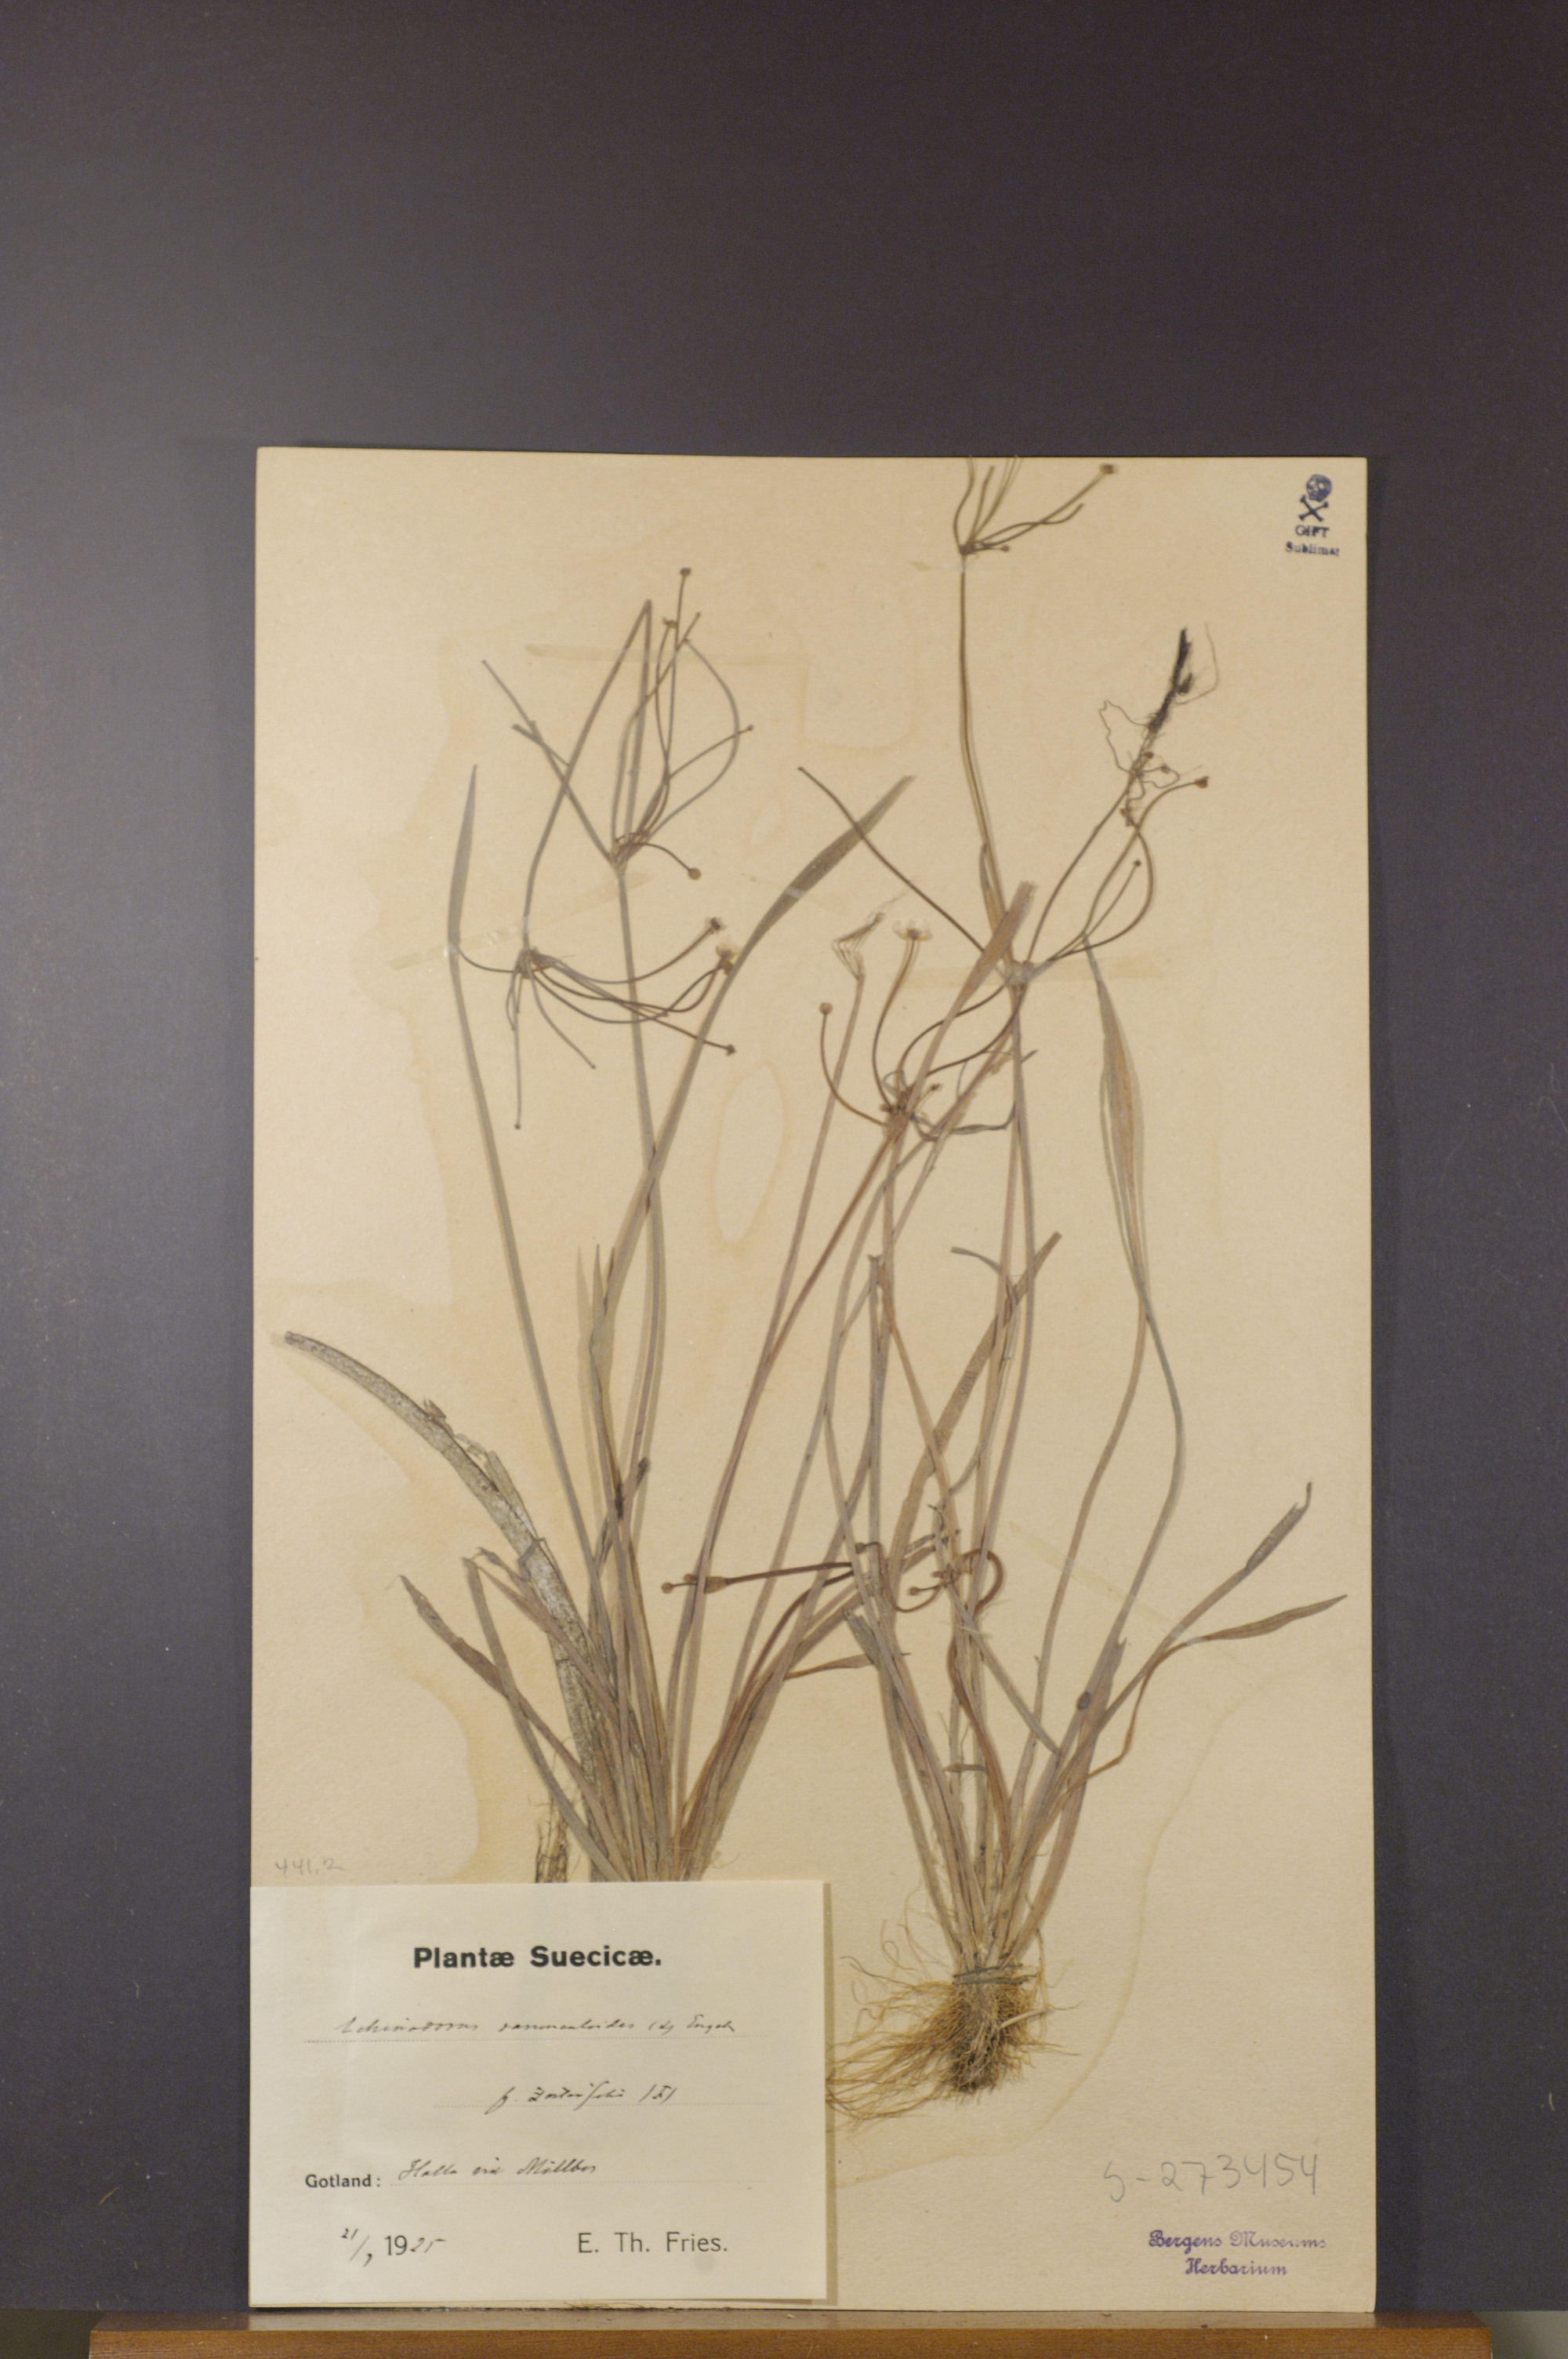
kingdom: Plantae
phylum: Tracheophyta
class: Liliopsida
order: Alismatales
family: Alismataceae
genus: Baldellia
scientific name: Baldellia ranunculoides
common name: Lesser water-plantain
